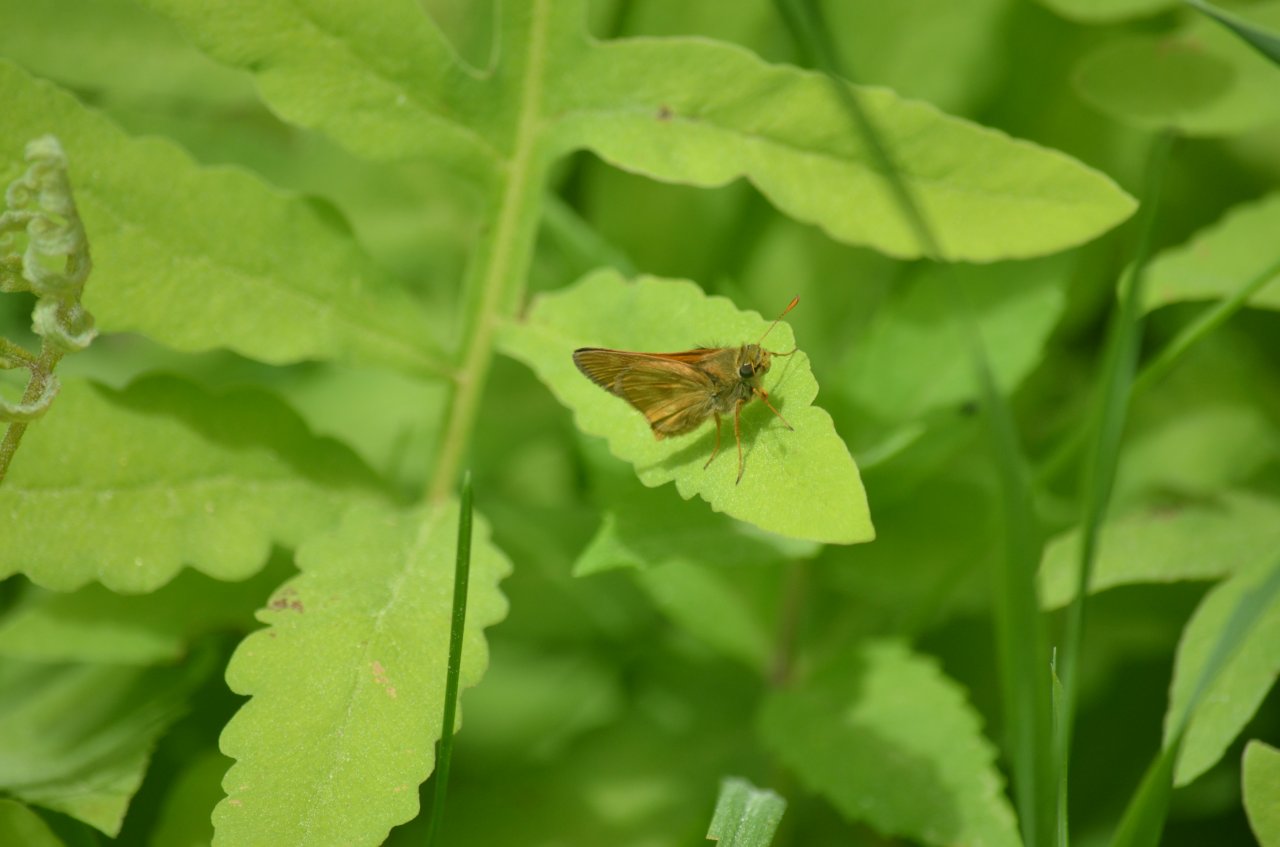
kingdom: Animalia
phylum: Arthropoda
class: Insecta
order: Lepidoptera
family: Hesperiidae
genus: Polites
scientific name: Polites
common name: Long Dash Skipper
